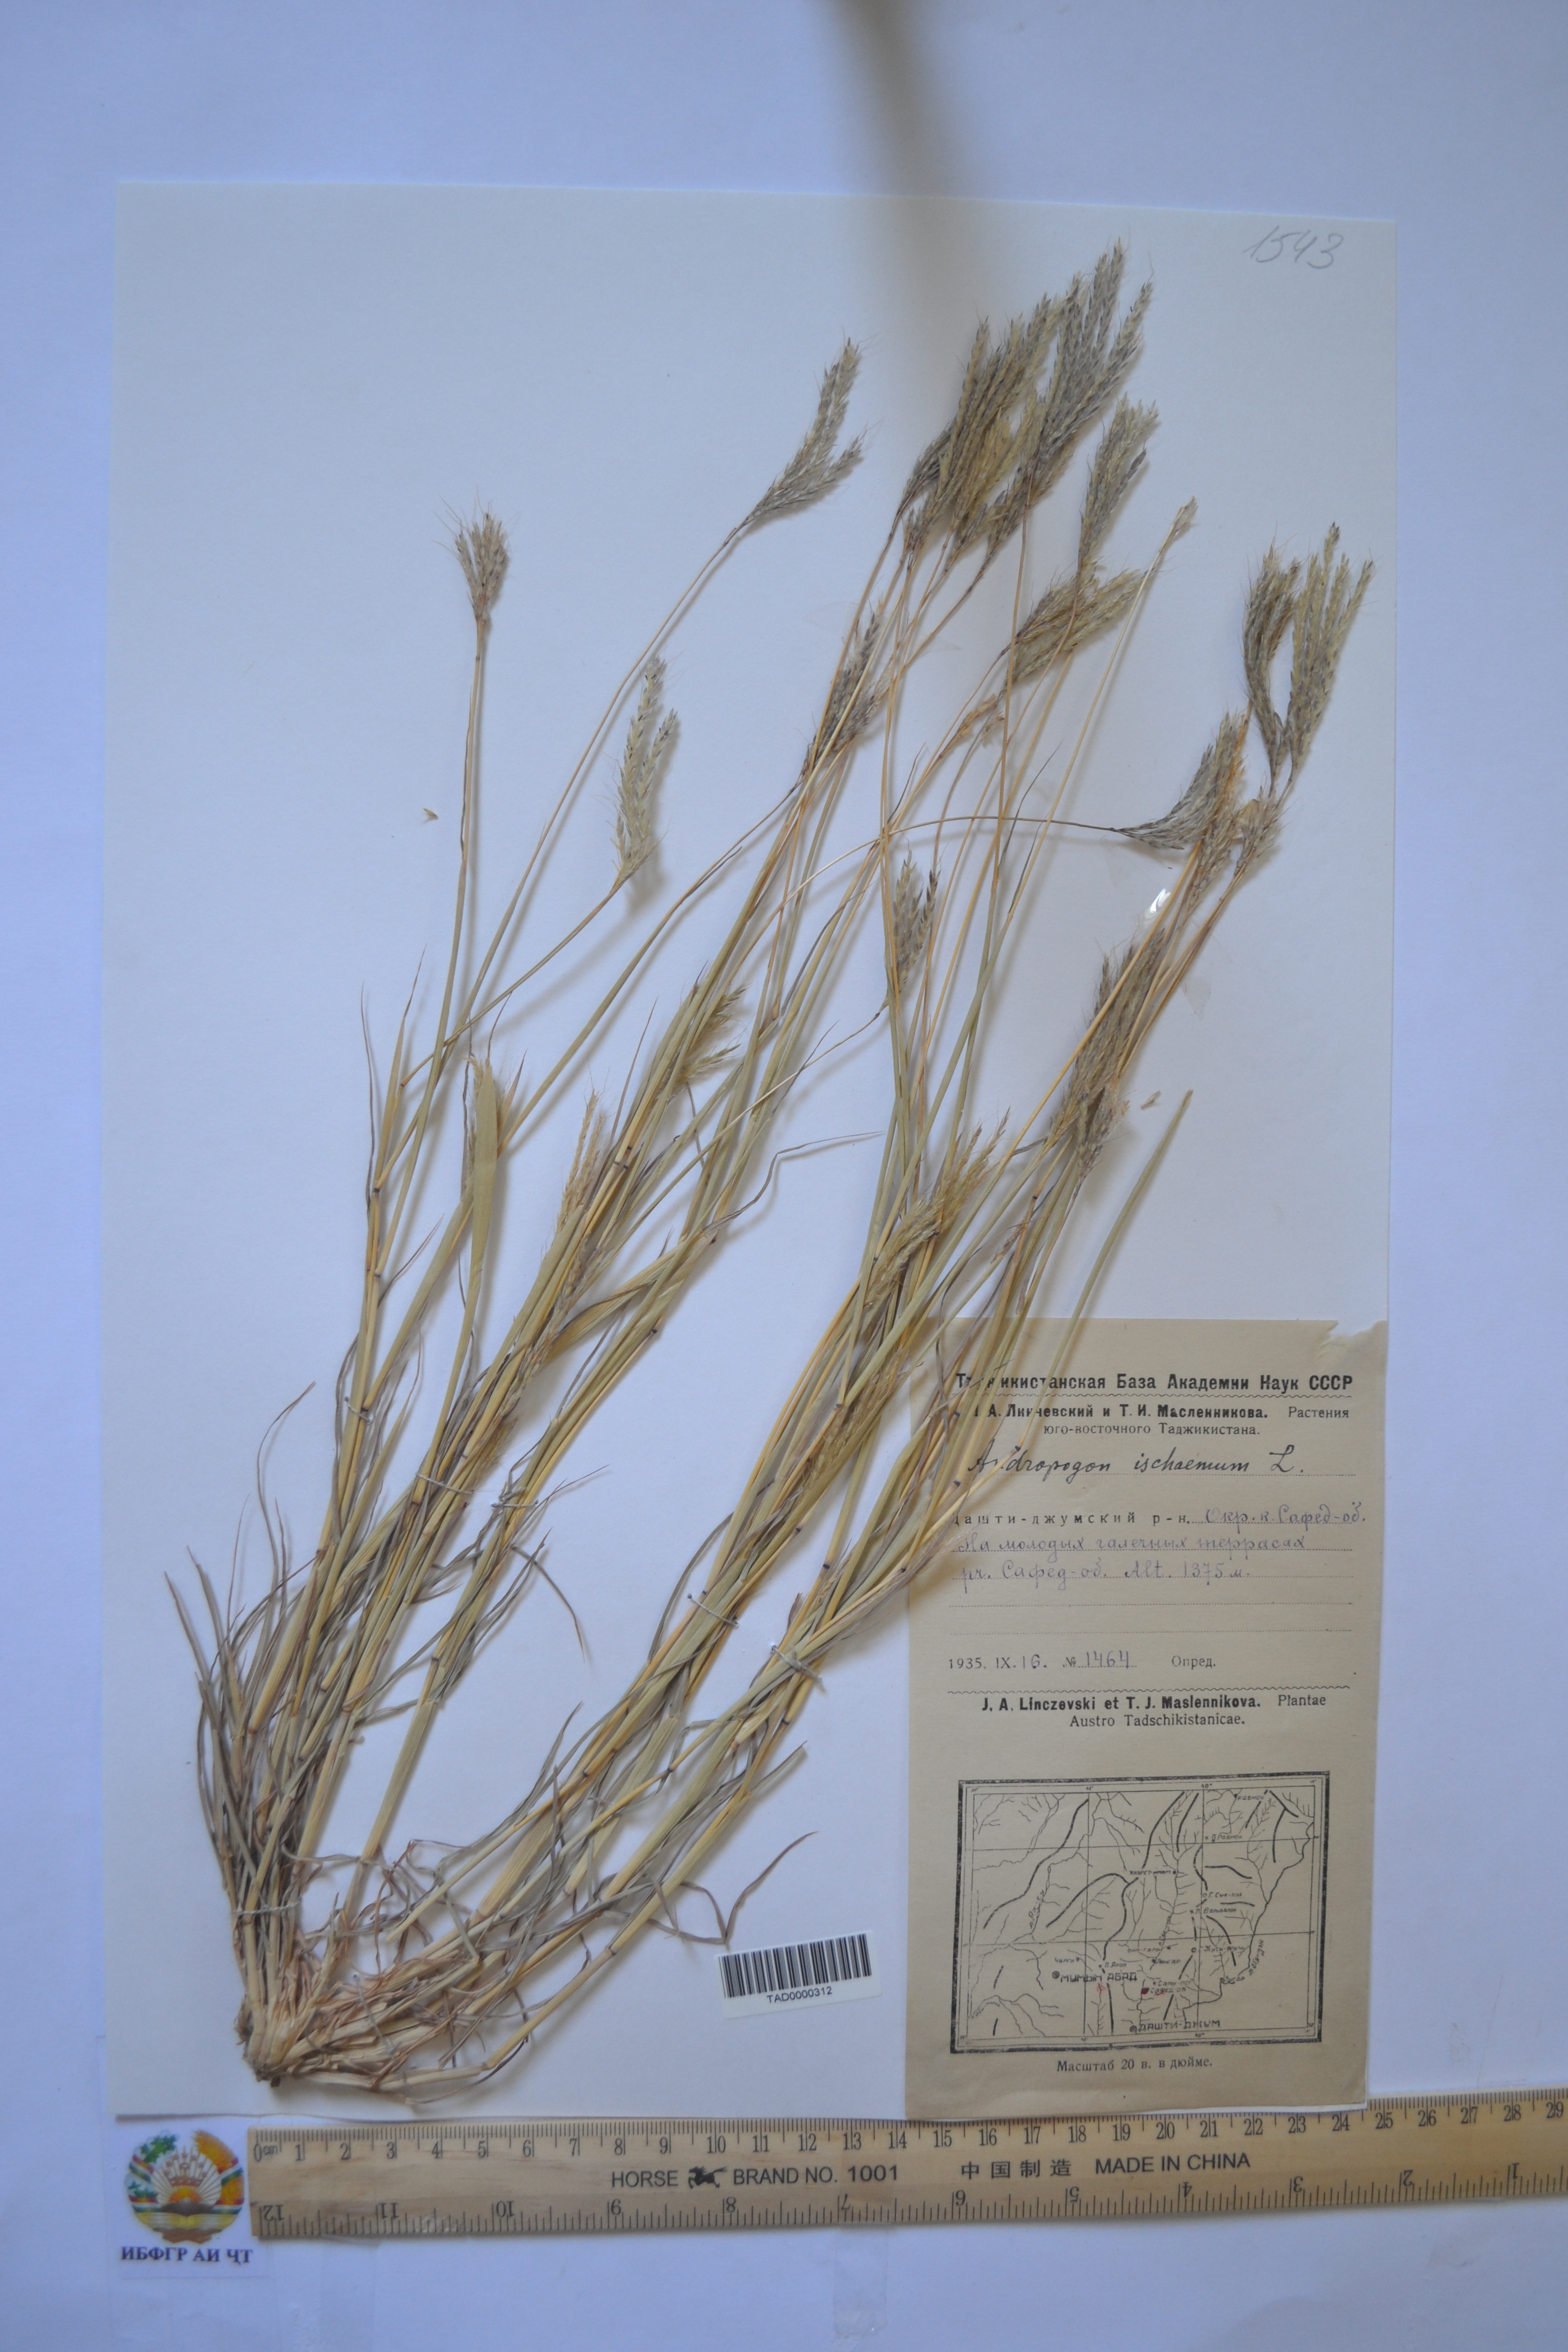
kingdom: Plantae
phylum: Tracheophyta
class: Liliopsida
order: Poales
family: Poaceae
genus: Bothriochloa
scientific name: Bothriochloa ischaemum
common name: Yellow bluestem
